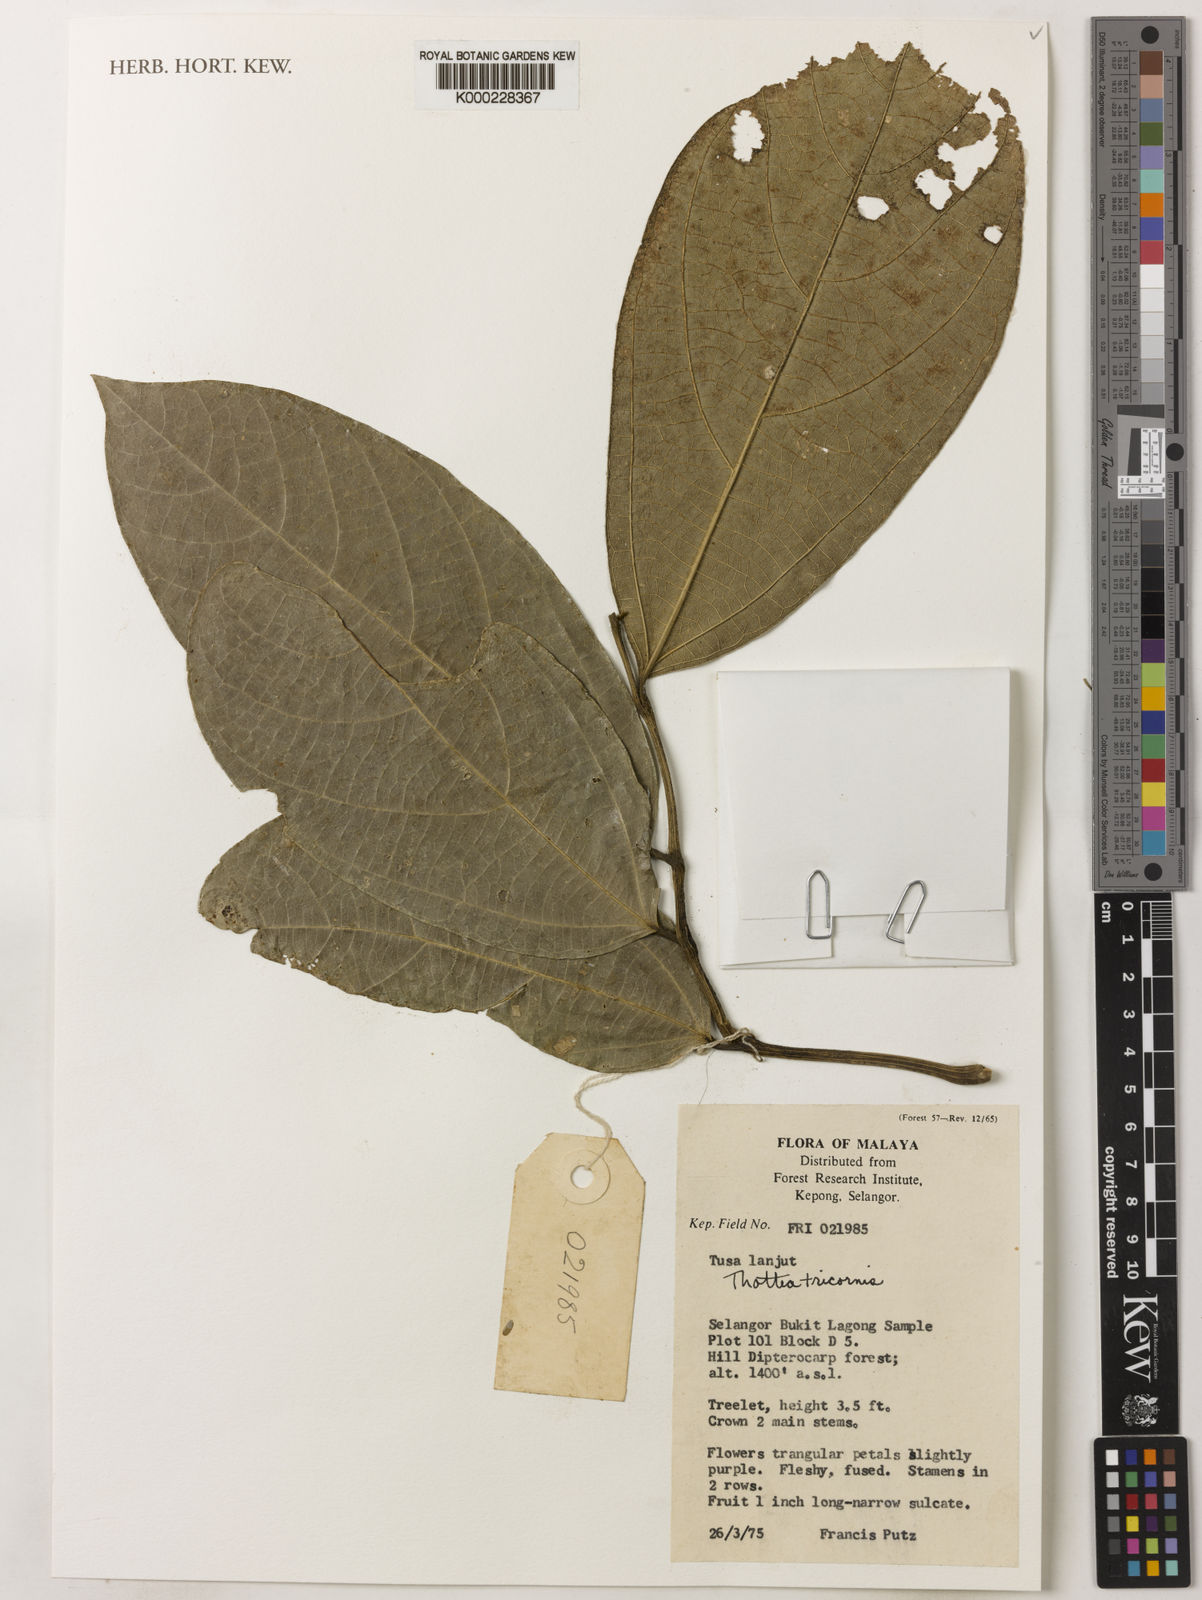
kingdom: Plantae
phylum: Tracheophyta
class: Magnoliopsida
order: Piperales
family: Aristolochiaceae
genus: Thottea
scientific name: Thottea tricornis
